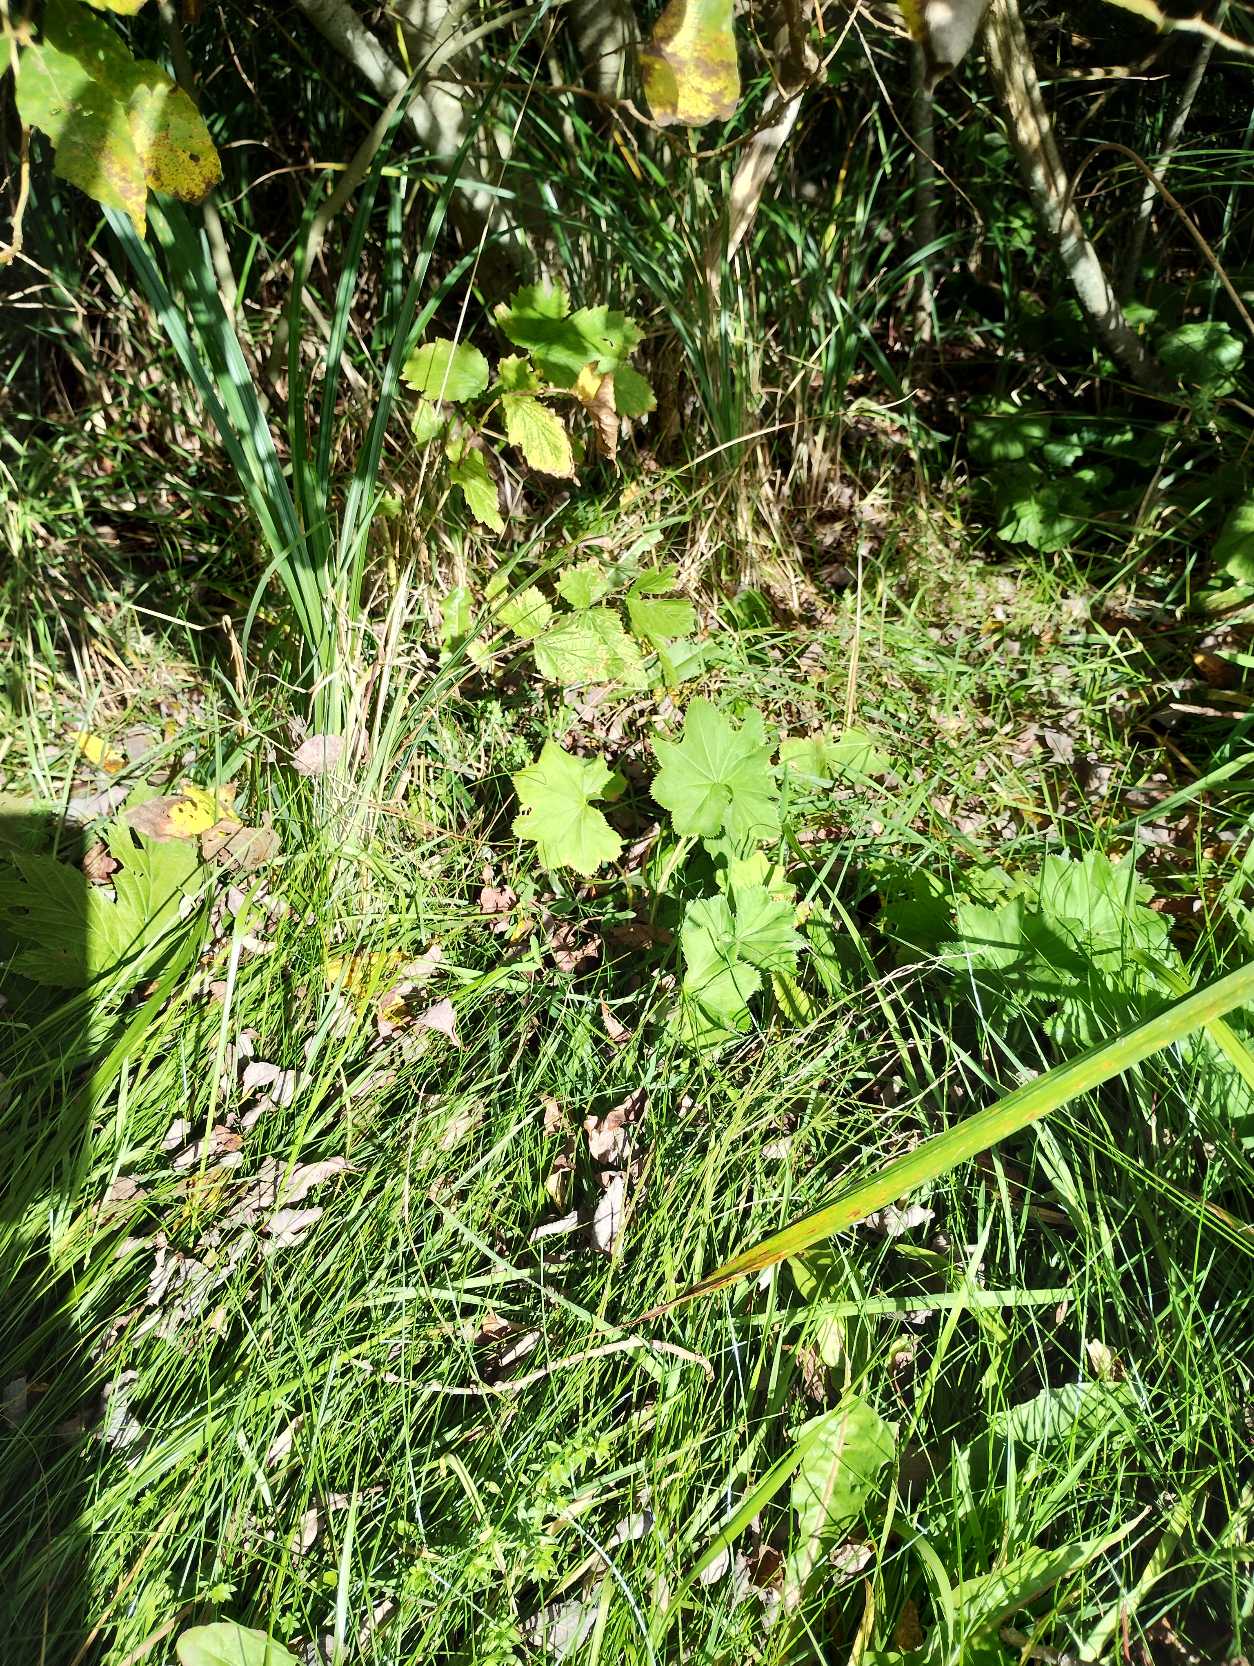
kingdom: Plantae
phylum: Tracheophyta
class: Magnoliopsida
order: Rosales
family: Rosaceae
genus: Alchemilla
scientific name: Alchemilla xanthochlora
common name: Gulgrøn løvefod
